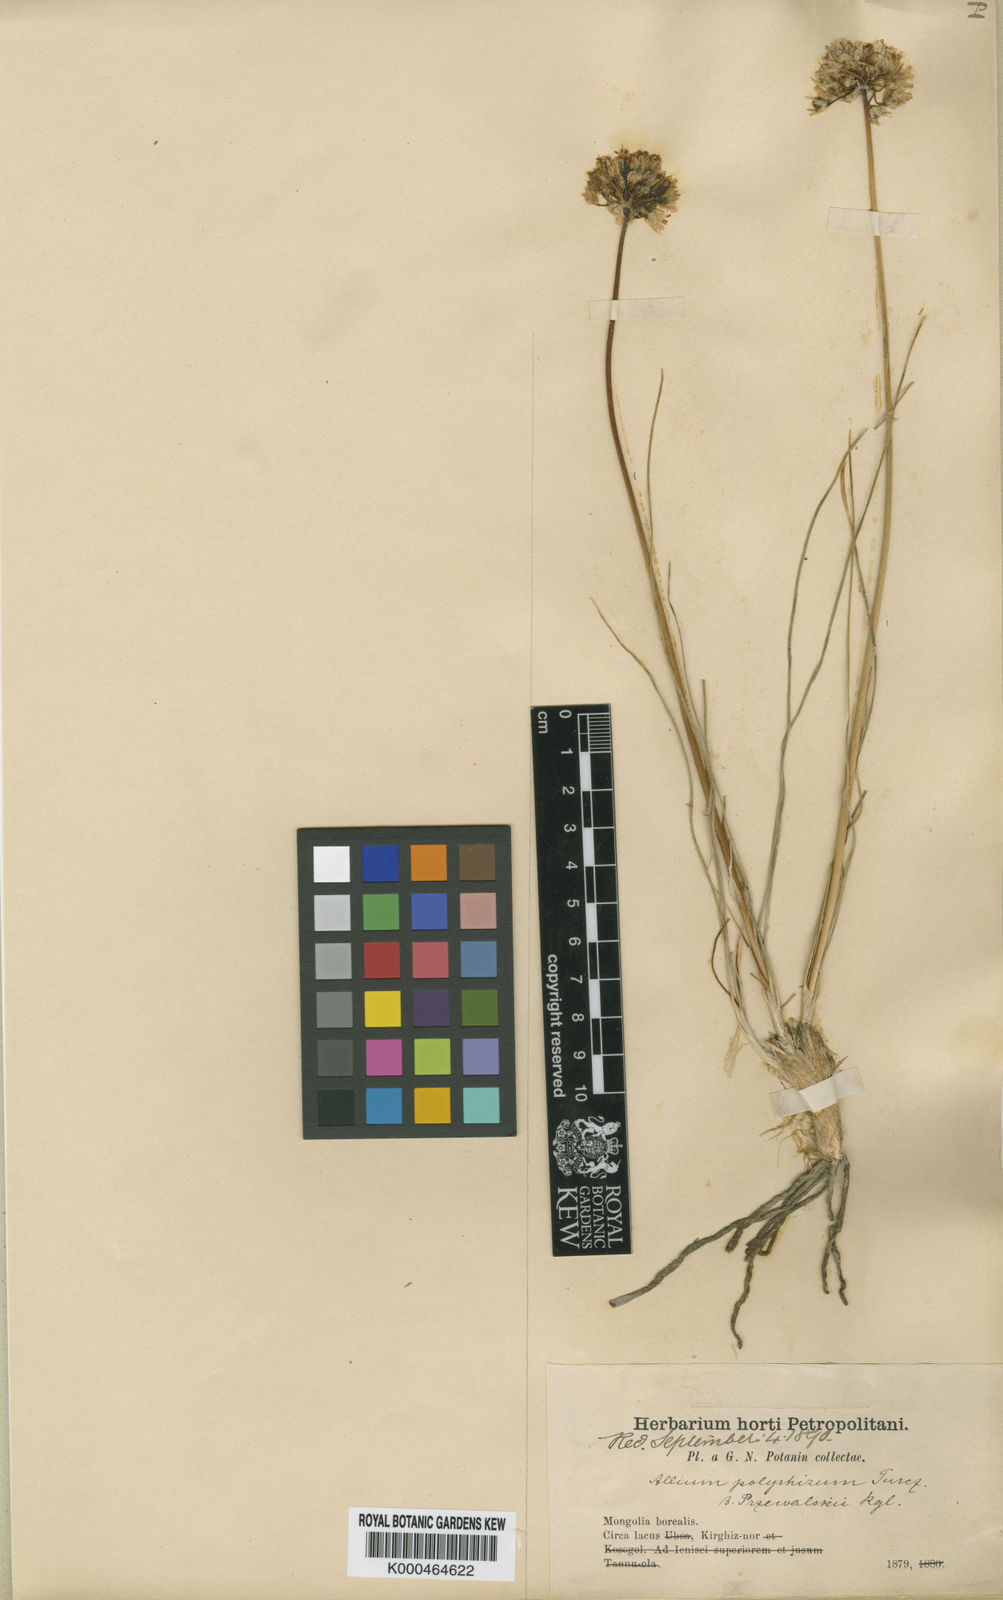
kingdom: Plantae
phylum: Tracheophyta
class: Liliopsida
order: Asparagales
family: Amaryllidaceae
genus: Allium
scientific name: Allium przewalskianum
